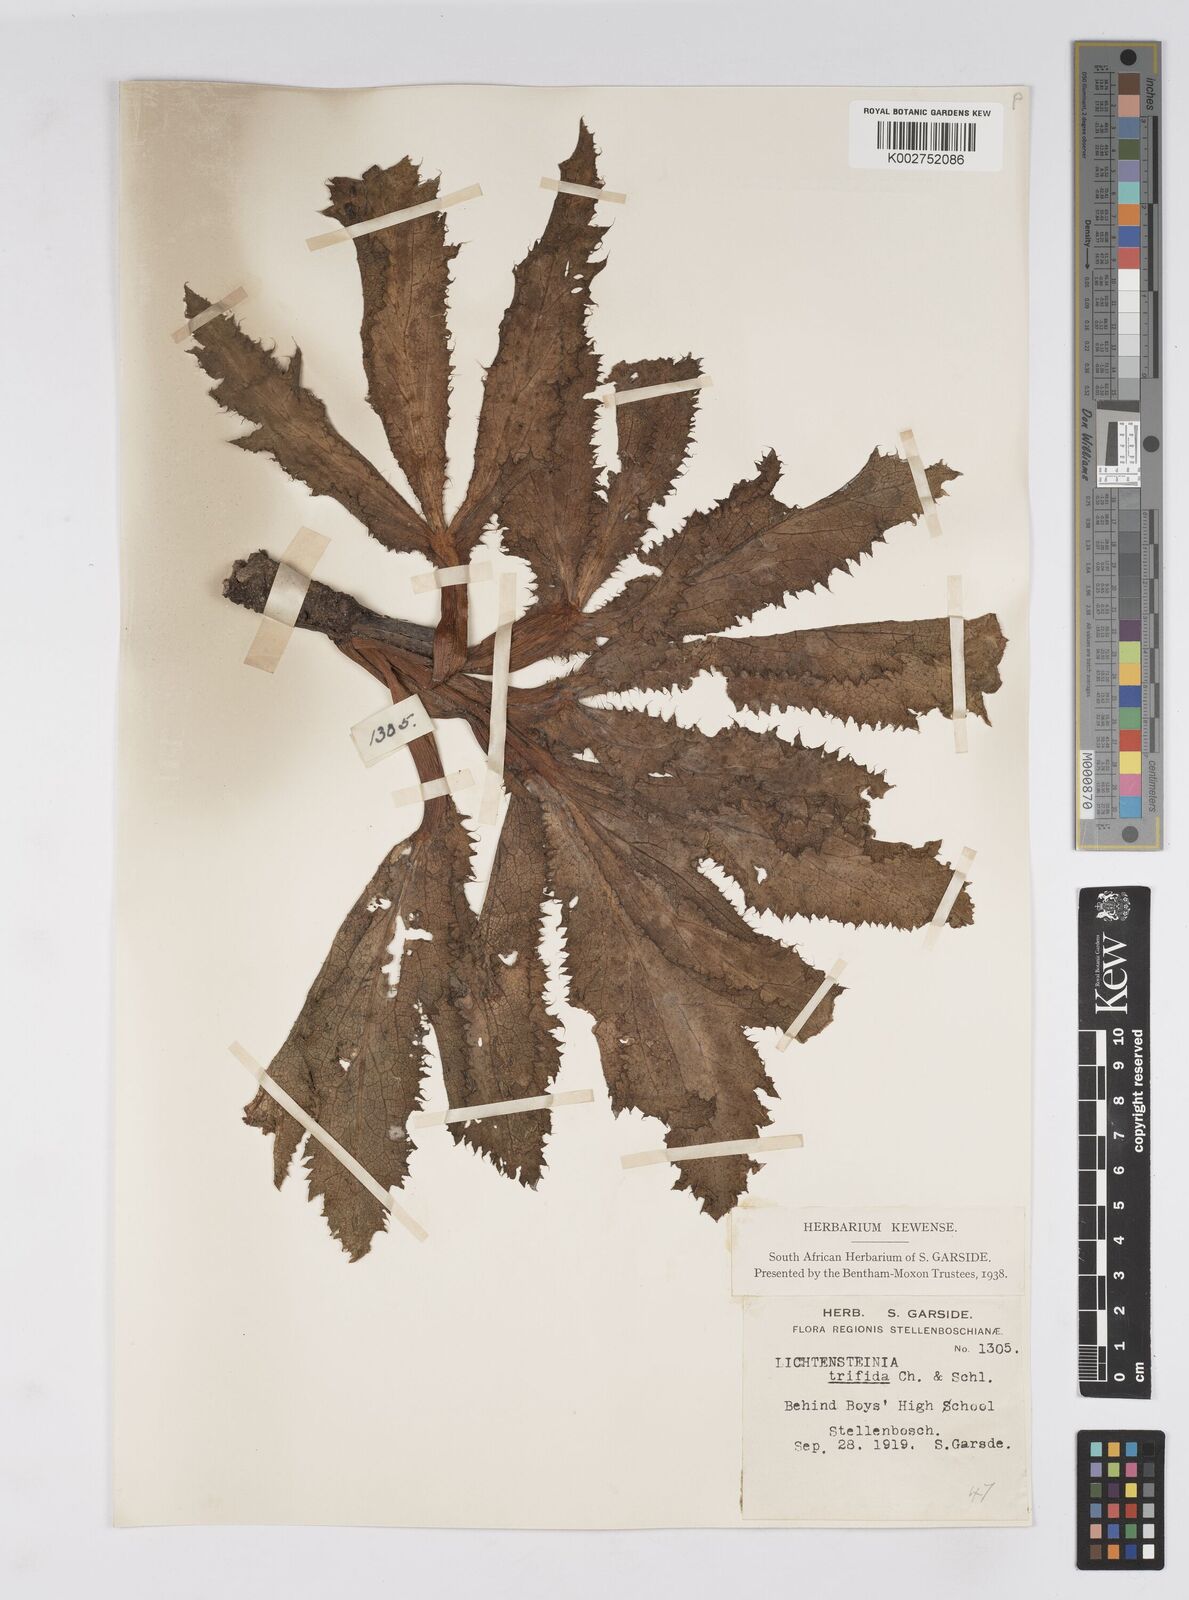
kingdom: Plantae
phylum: Tracheophyta
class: Magnoliopsida
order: Apiales
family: Apiaceae
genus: Lichtensteinia
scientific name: Lichtensteinia trifida
